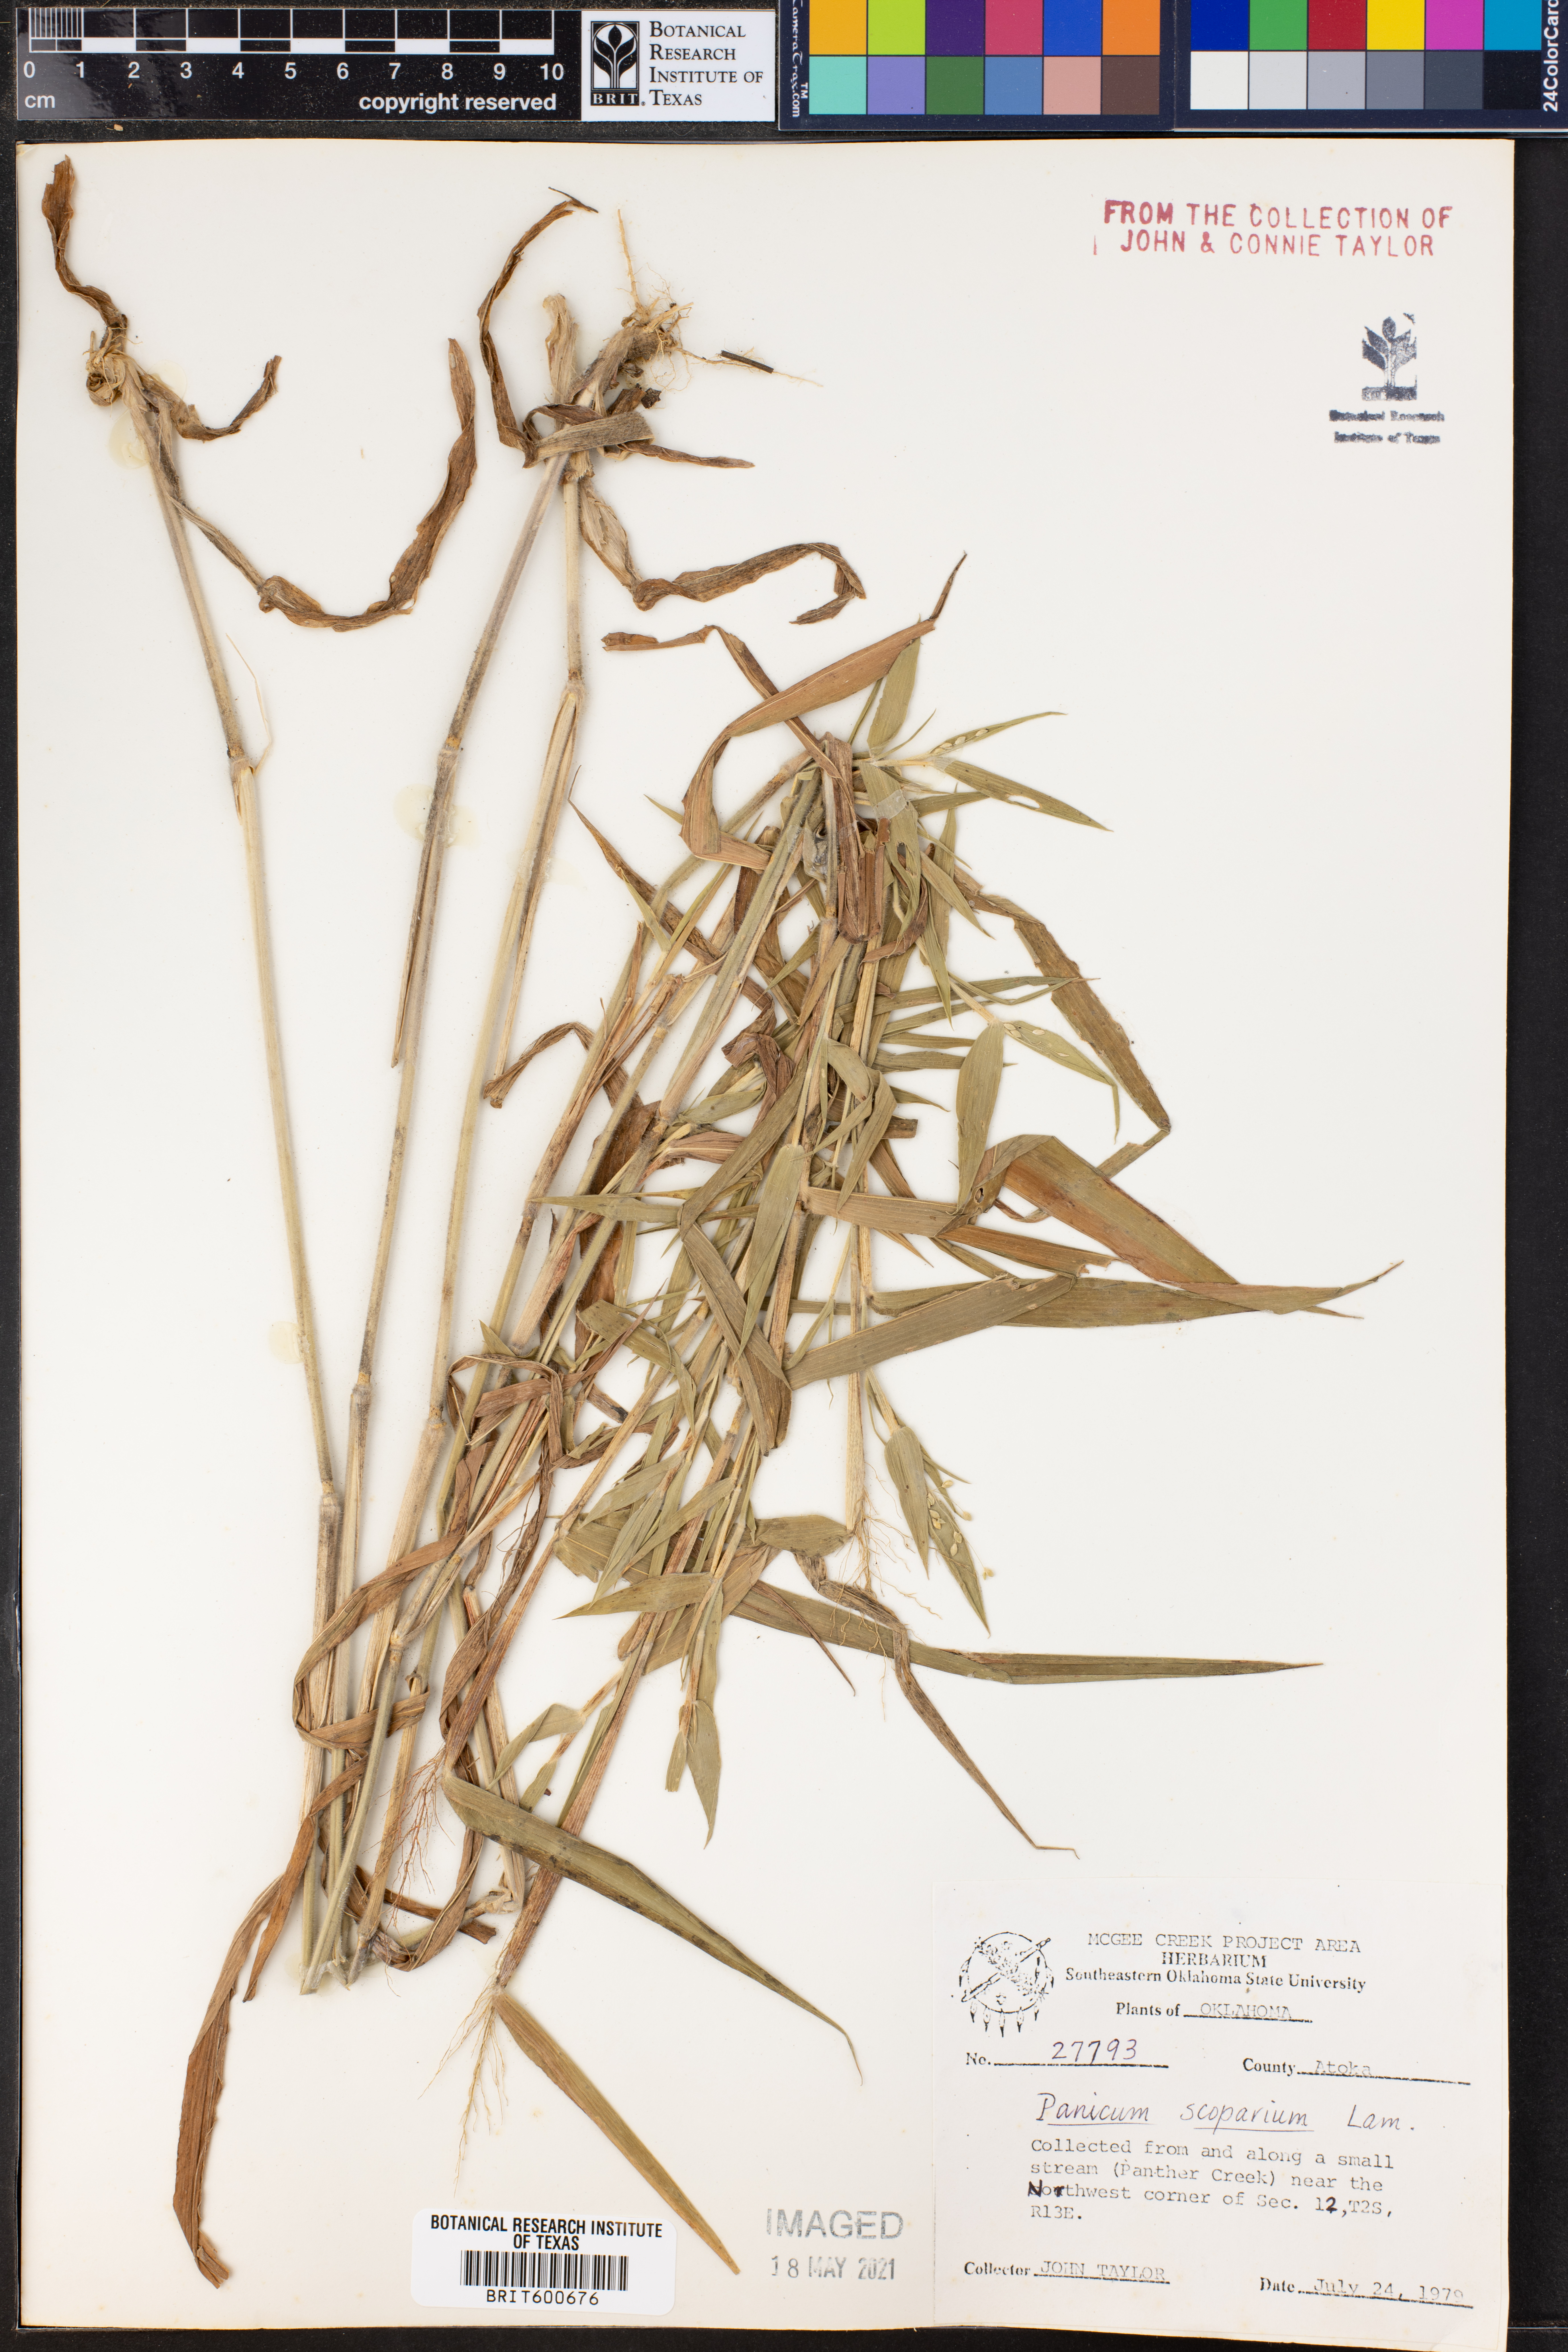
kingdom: Plantae
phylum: Tracheophyta
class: Liliopsida
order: Poales
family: Poaceae
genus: Dichanthelium
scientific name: Dichanthelium scribnerianum
